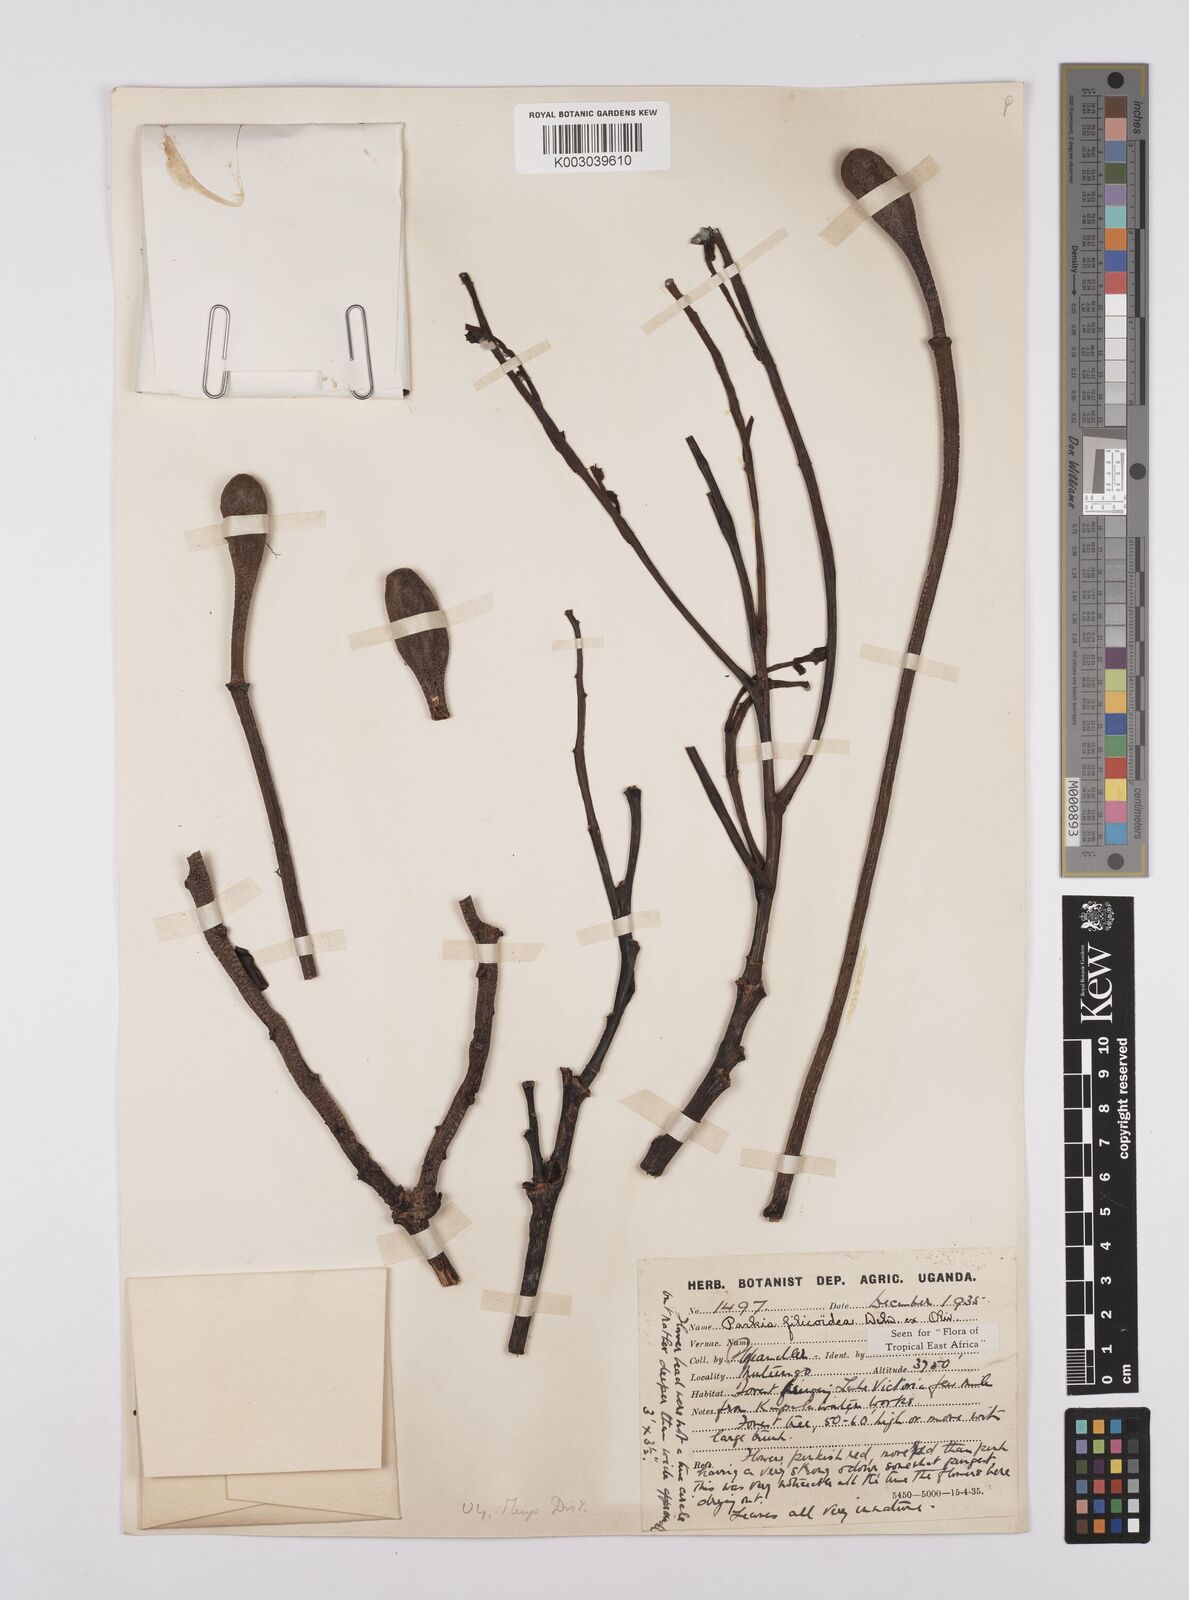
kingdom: Plantae
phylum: Tracheophyta
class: Magnoliopsida
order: Fabales
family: Fabaceae
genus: Parkia
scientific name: Parkia filicoidea
